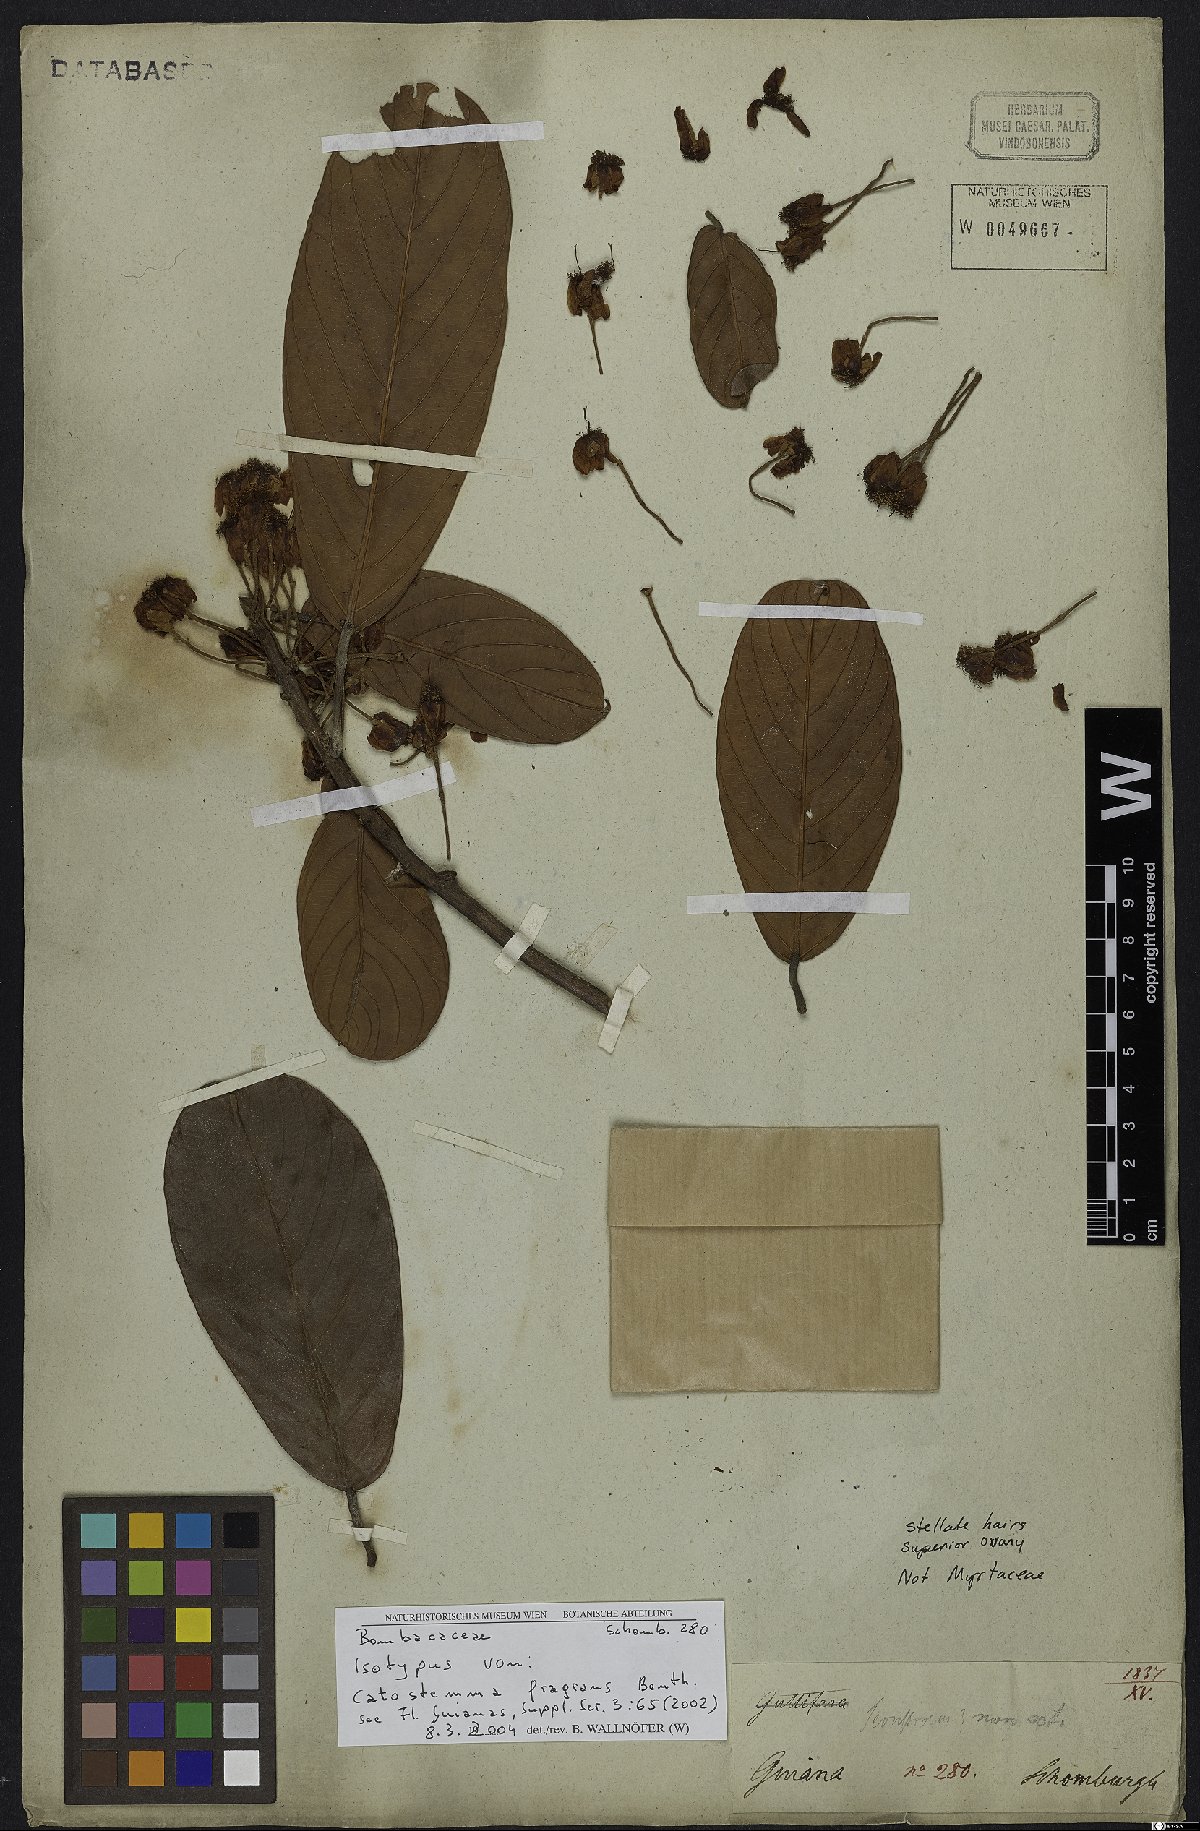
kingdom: Plantae
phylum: Tracheophyta
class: Magnoliopsida
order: Malvales
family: Malvaceae
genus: Catostemma
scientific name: Catostemma fragrans
